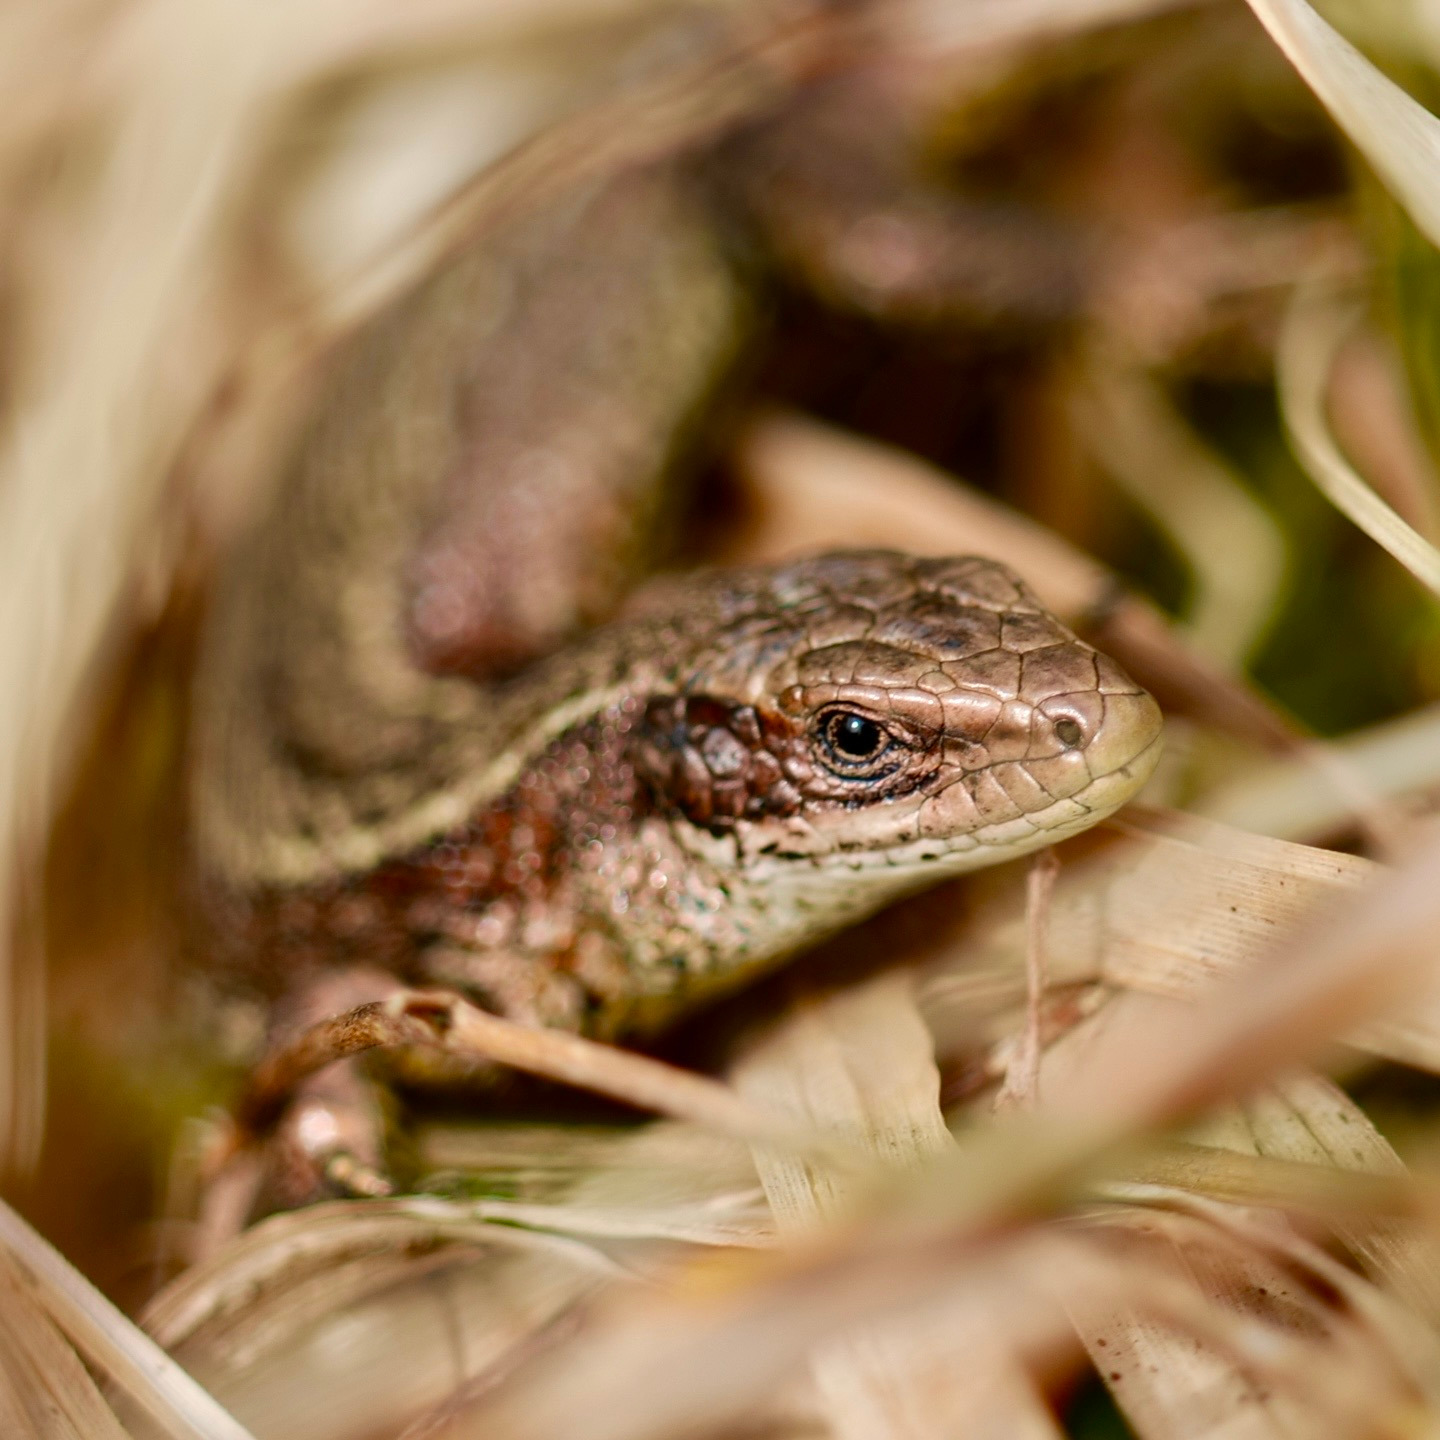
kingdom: Animalia
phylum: Chordata
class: Squamata
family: Lacertidae
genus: Zootoca
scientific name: Zootoca vivipara
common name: Skovfirben
